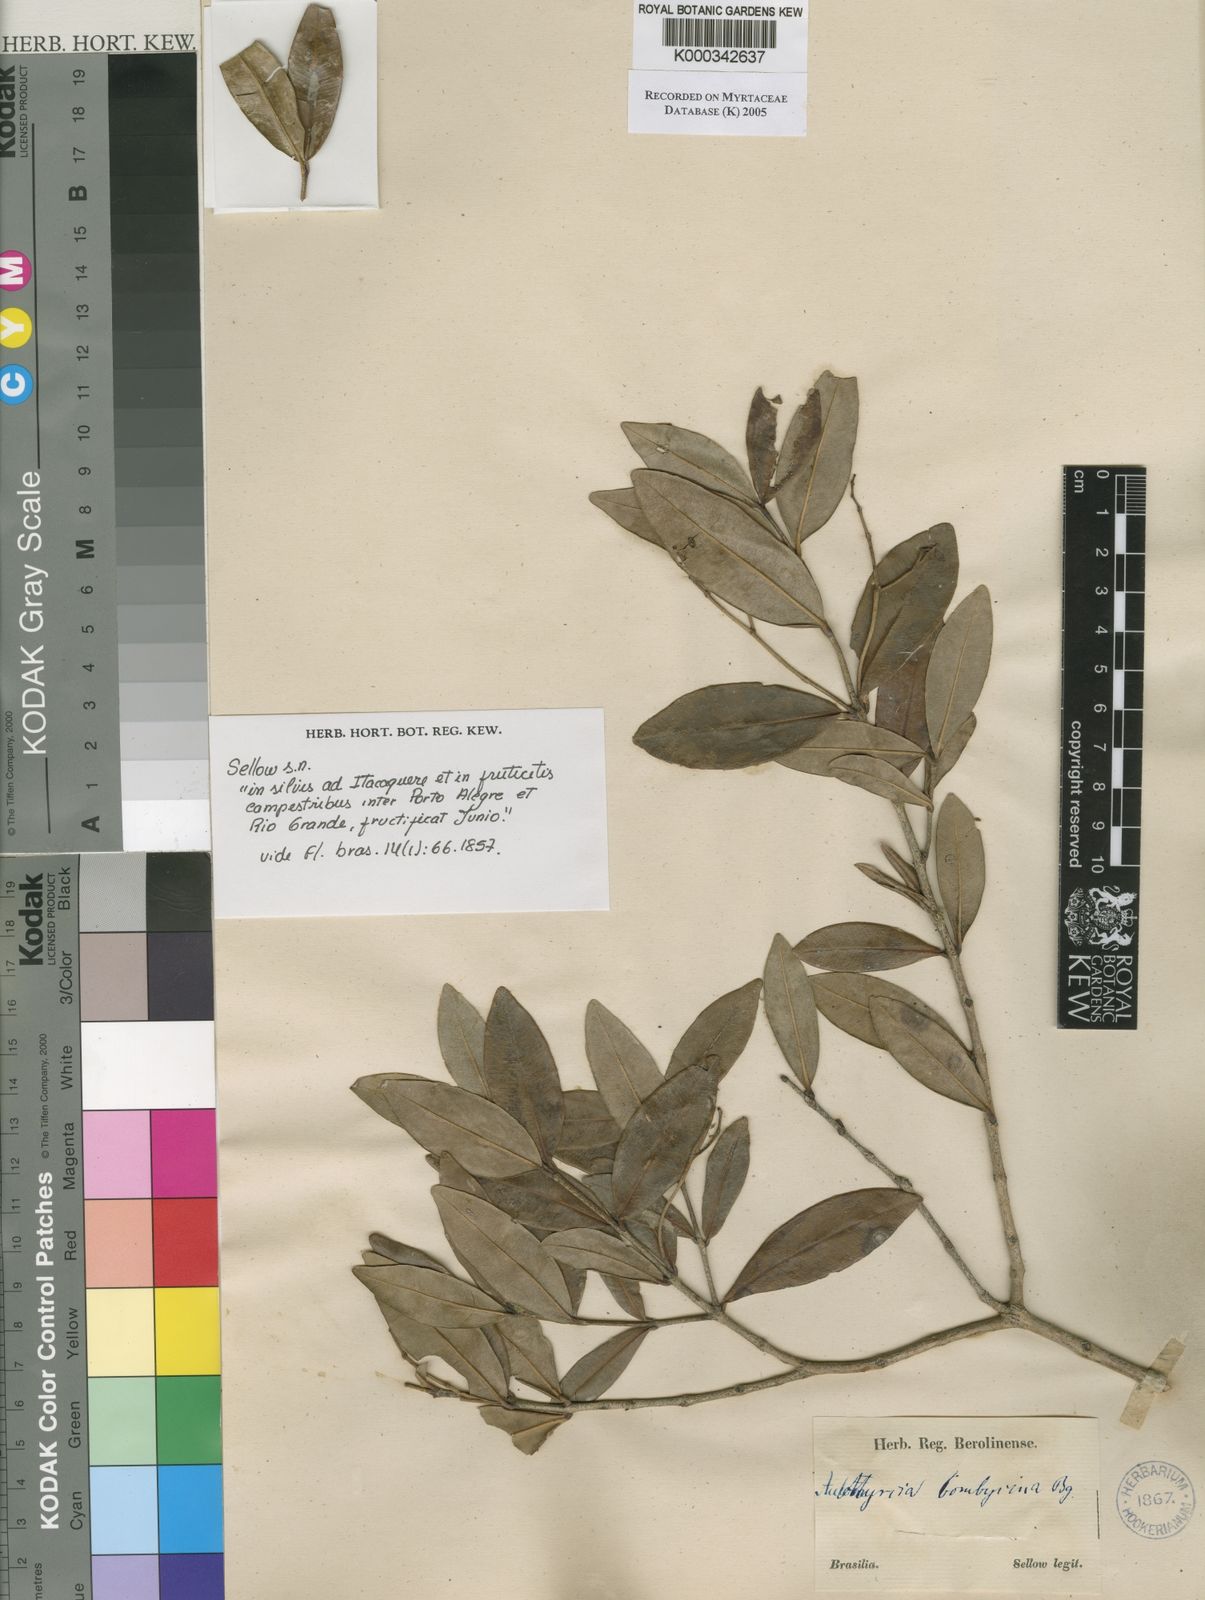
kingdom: Plantae
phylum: Tracheophyta
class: Magnoliopsida
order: Myrtales
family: Myrtaceae
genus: Myrcia
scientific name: Myrcia
